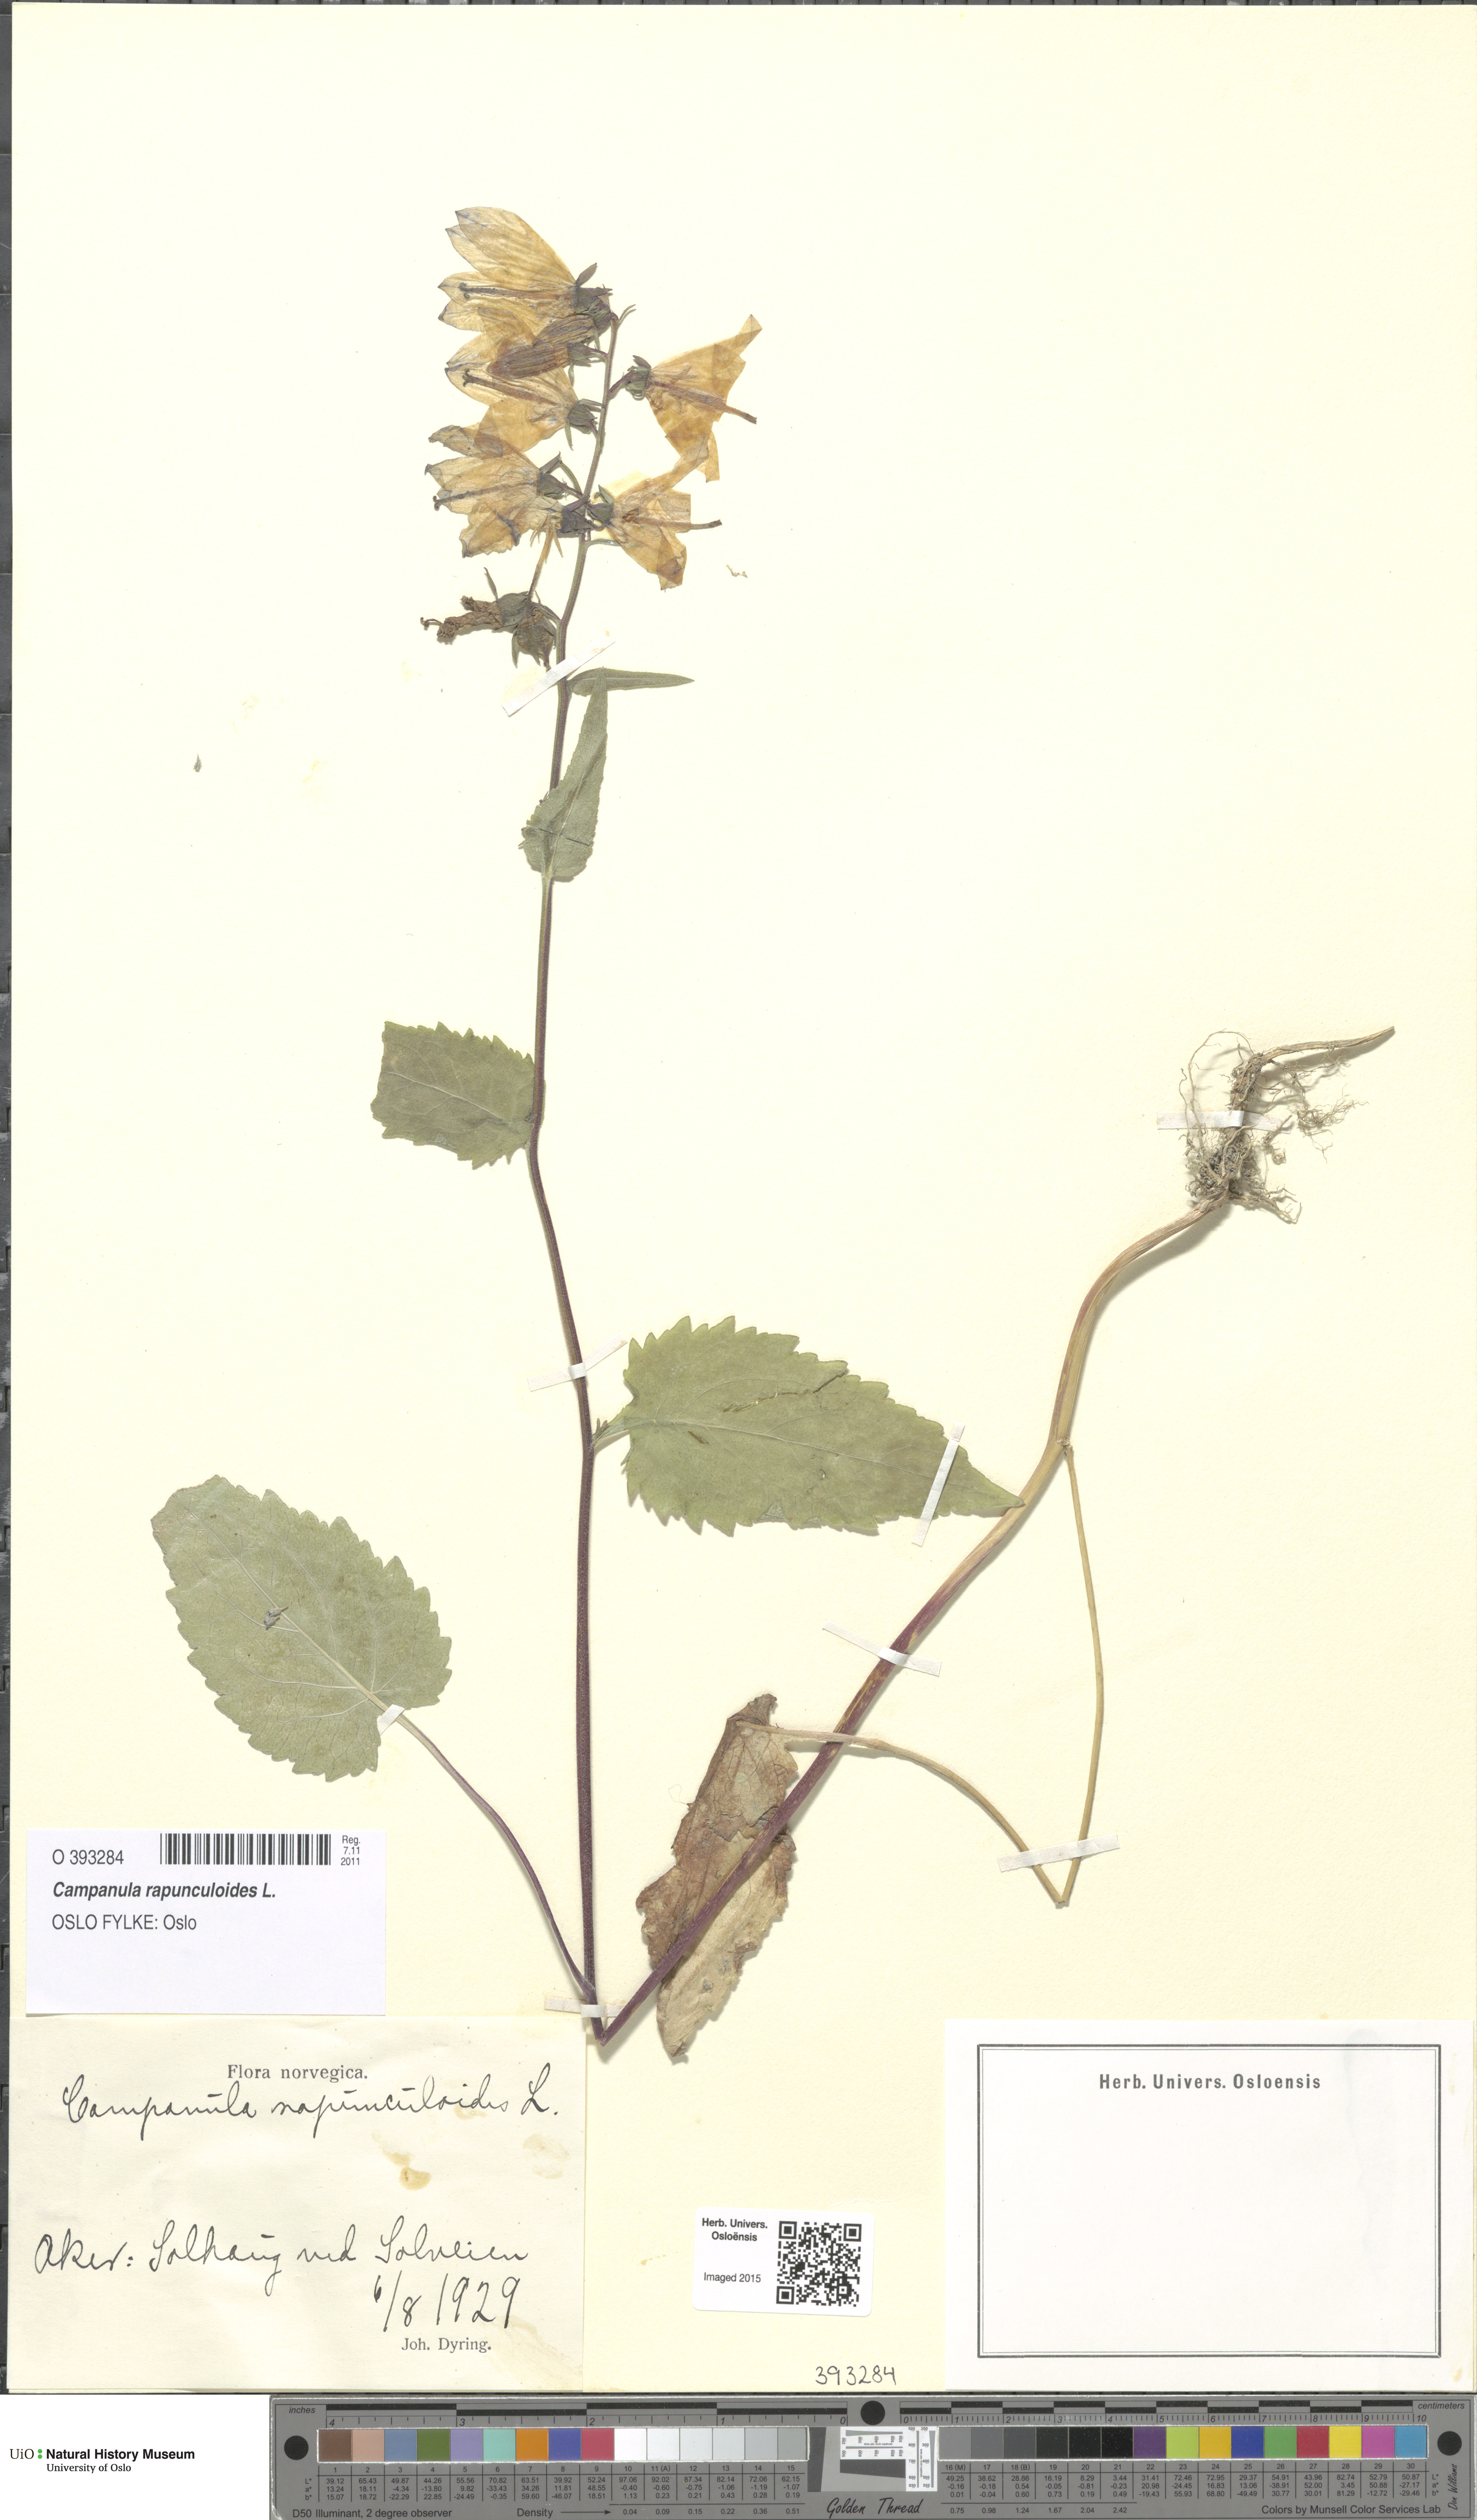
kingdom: Plantae
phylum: Tracheophyta
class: Magnoliopsida
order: Asterales
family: Campanulaceae
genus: Campanula
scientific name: Campanula rapunculoides
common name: Creeping bellflower
